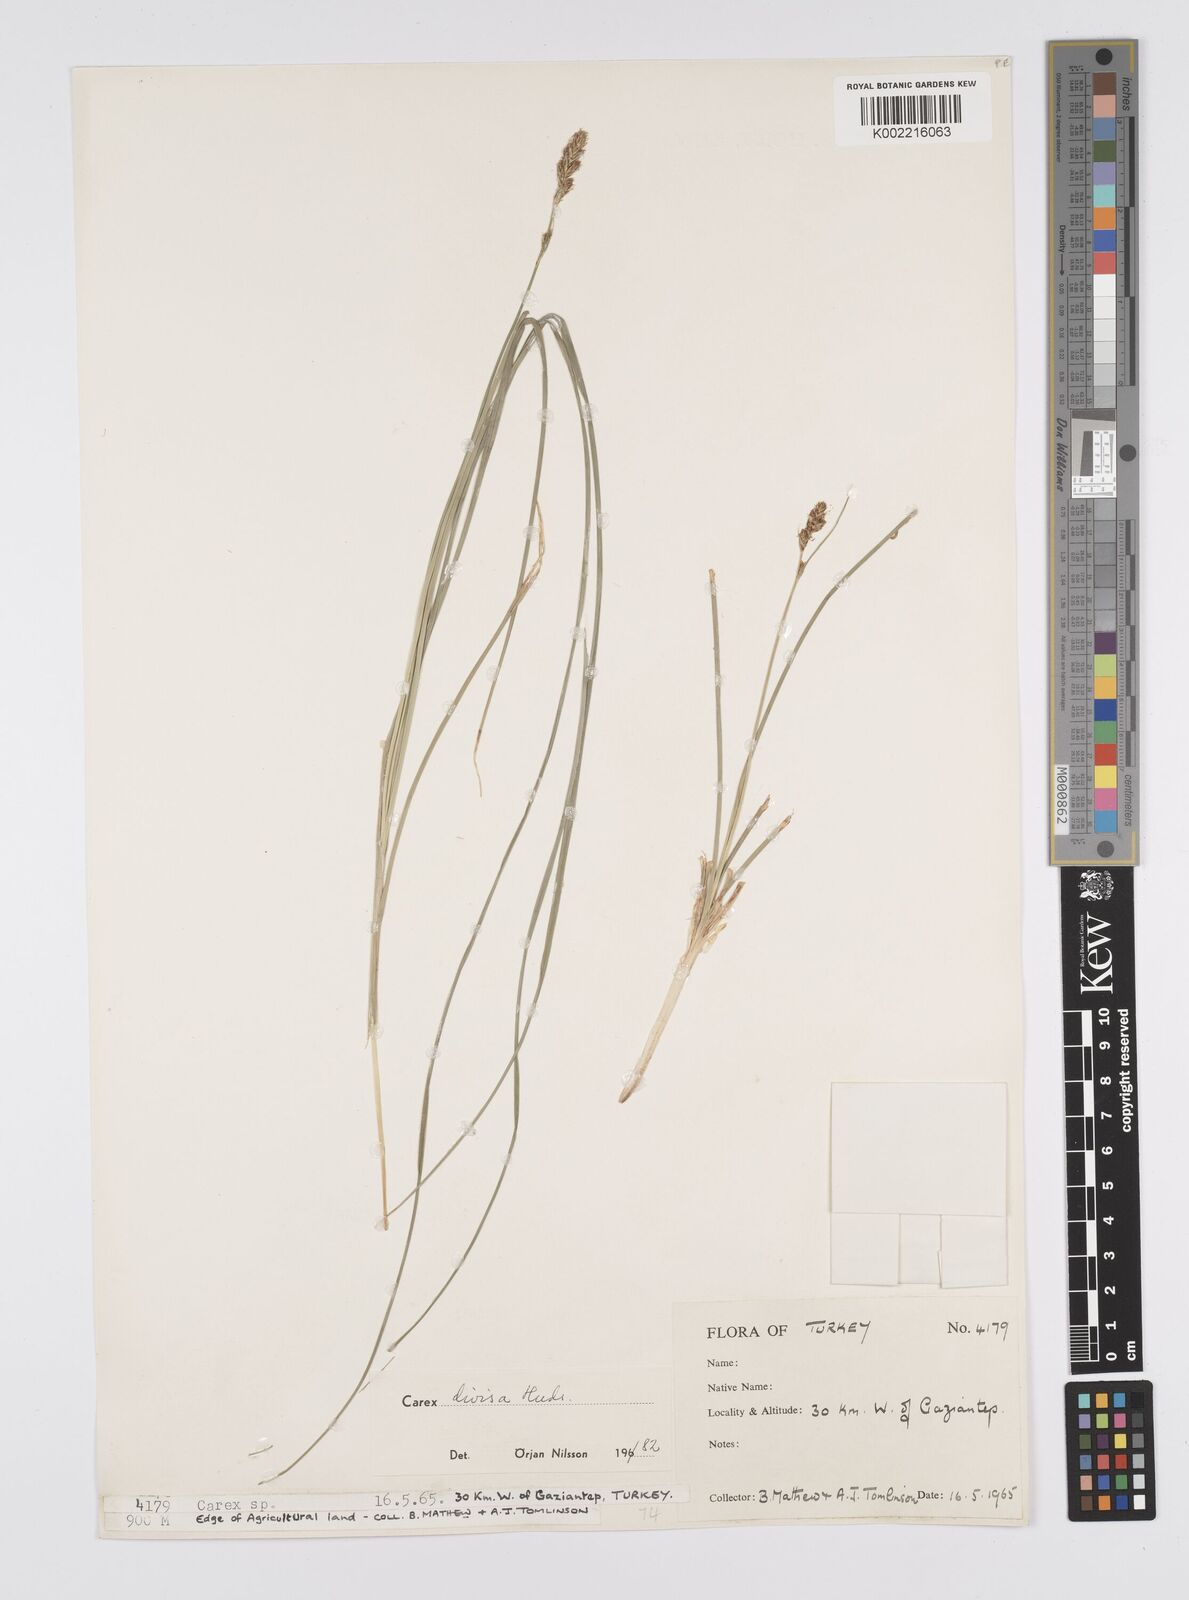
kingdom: Plantae
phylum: Tracheophyta
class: Liliopsida
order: Poales
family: Cyperaceae
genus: Carex
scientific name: Carex divisa
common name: Divided sedge
